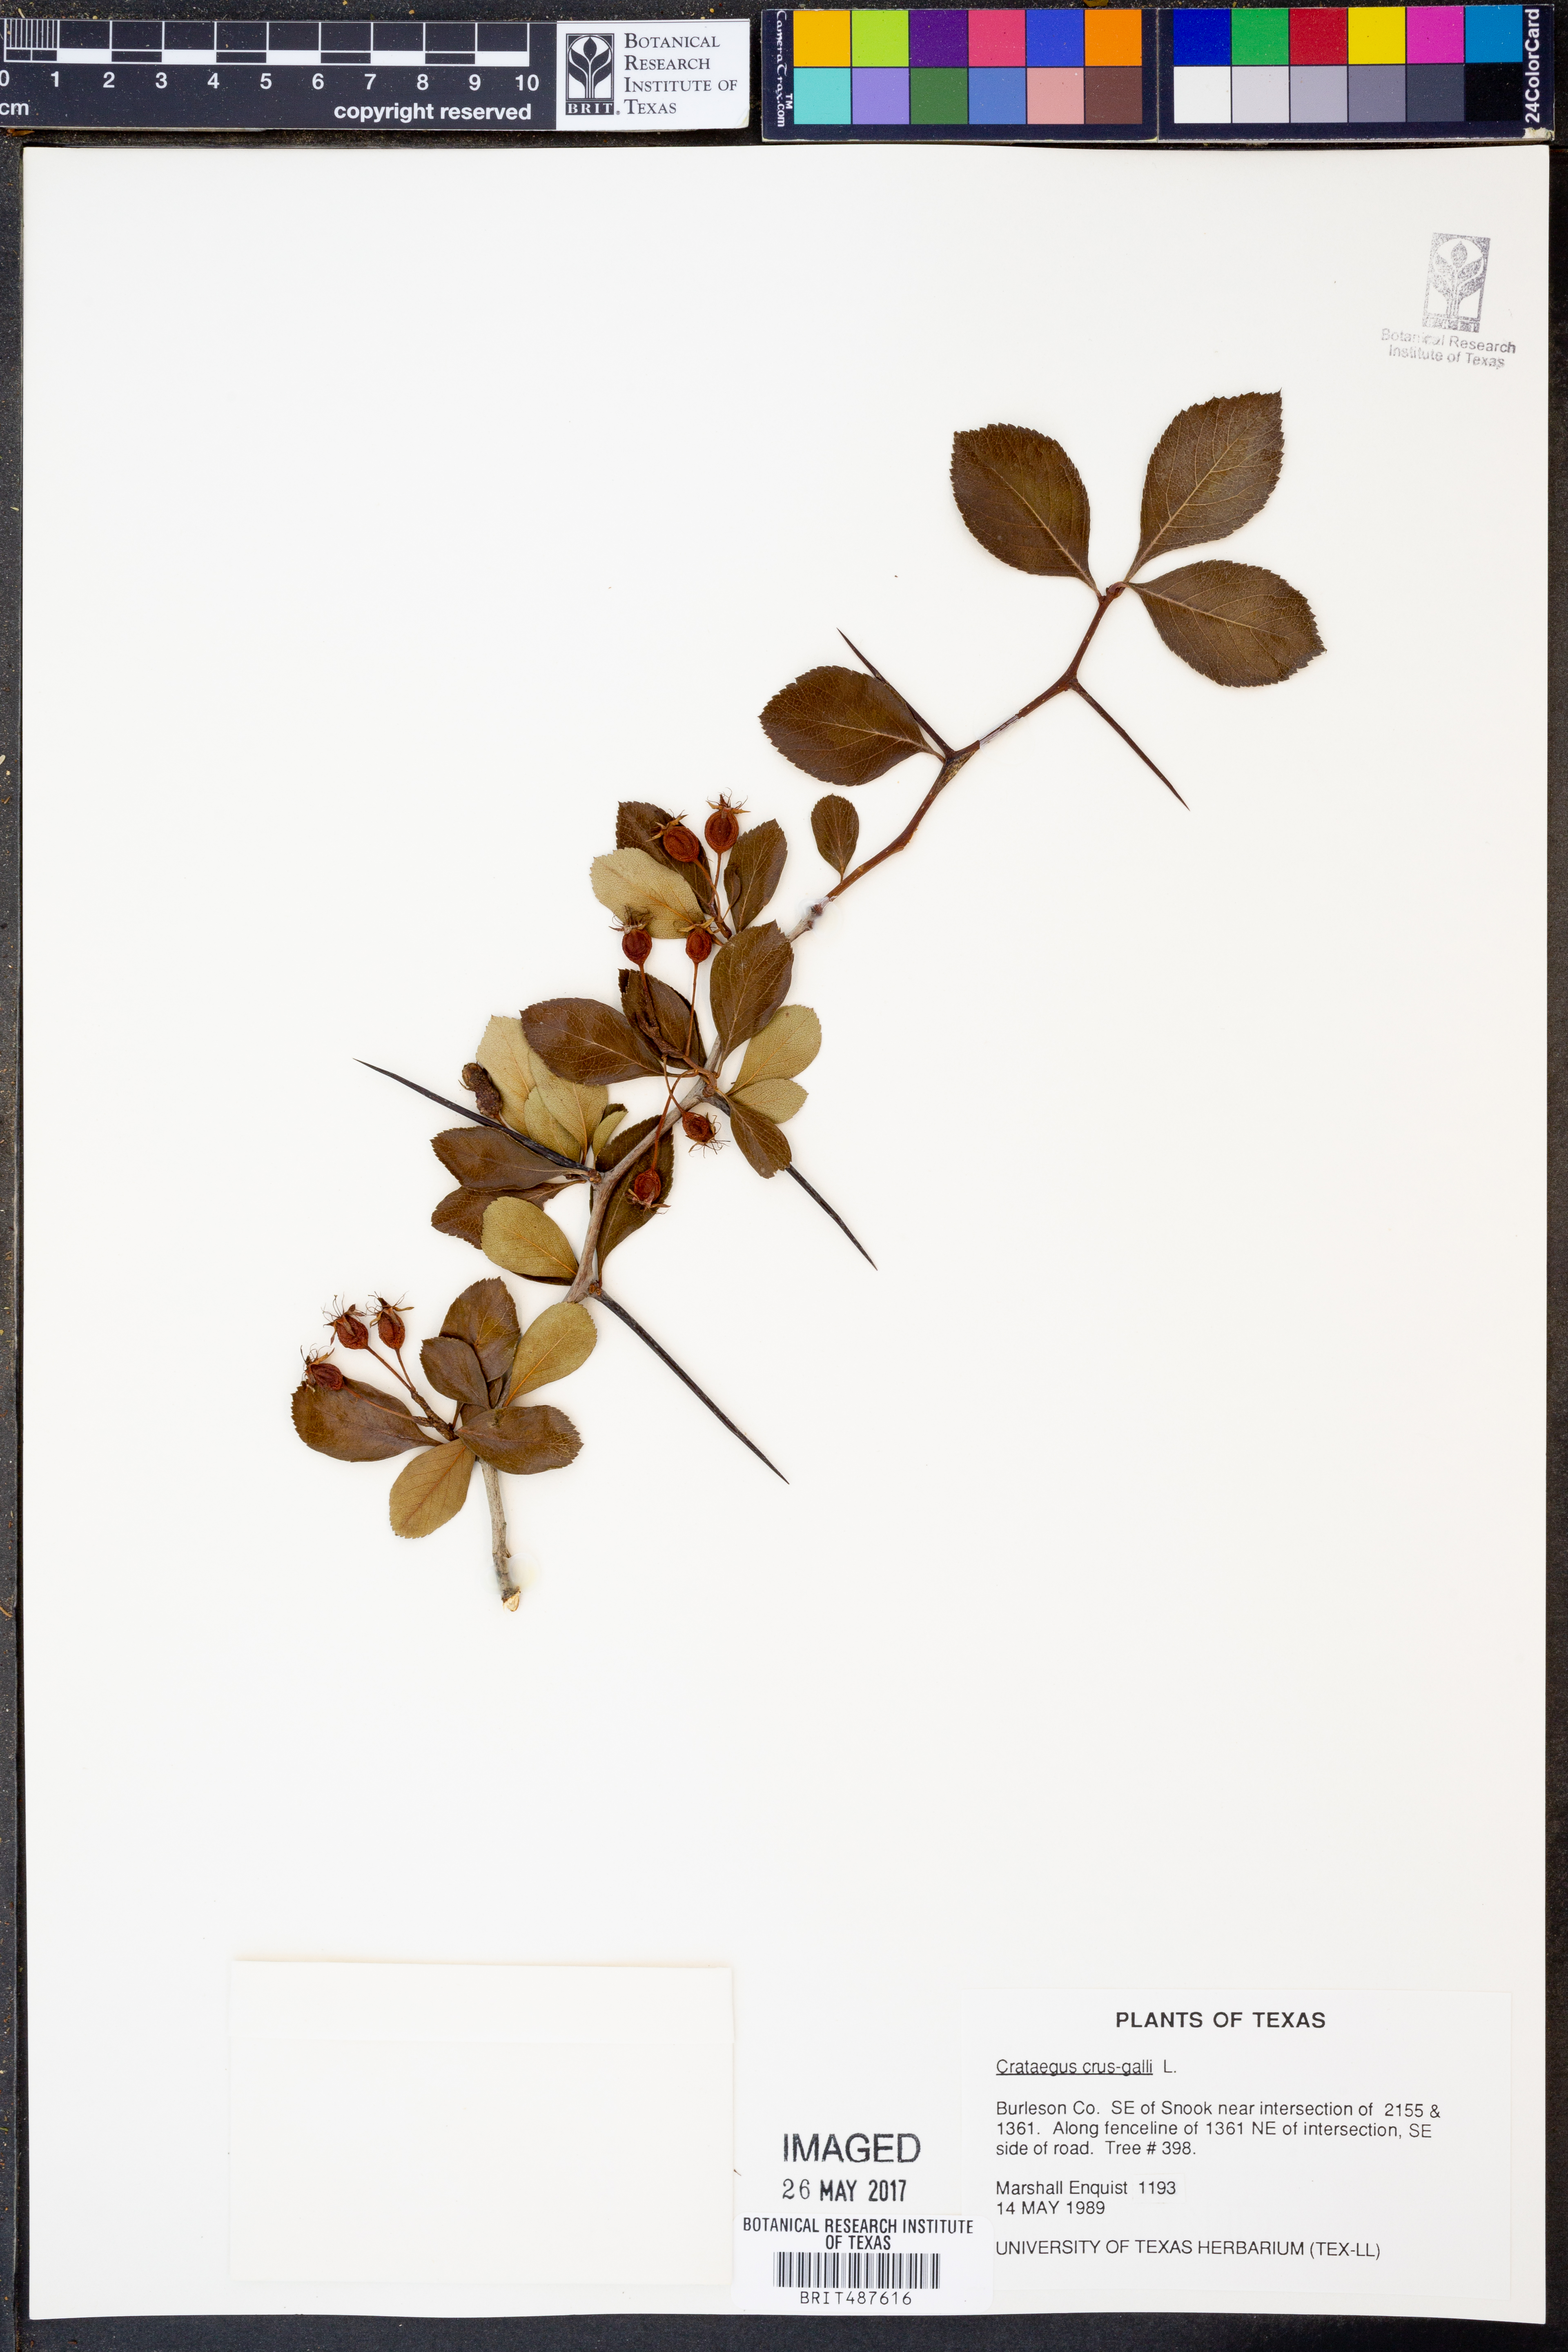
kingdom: Plantae
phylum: Tracheophyta
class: Magnoliopsida
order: Rosales
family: Rosaceae
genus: Crataegus
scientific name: Crataegus crus-galli
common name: Cockspurthorn
